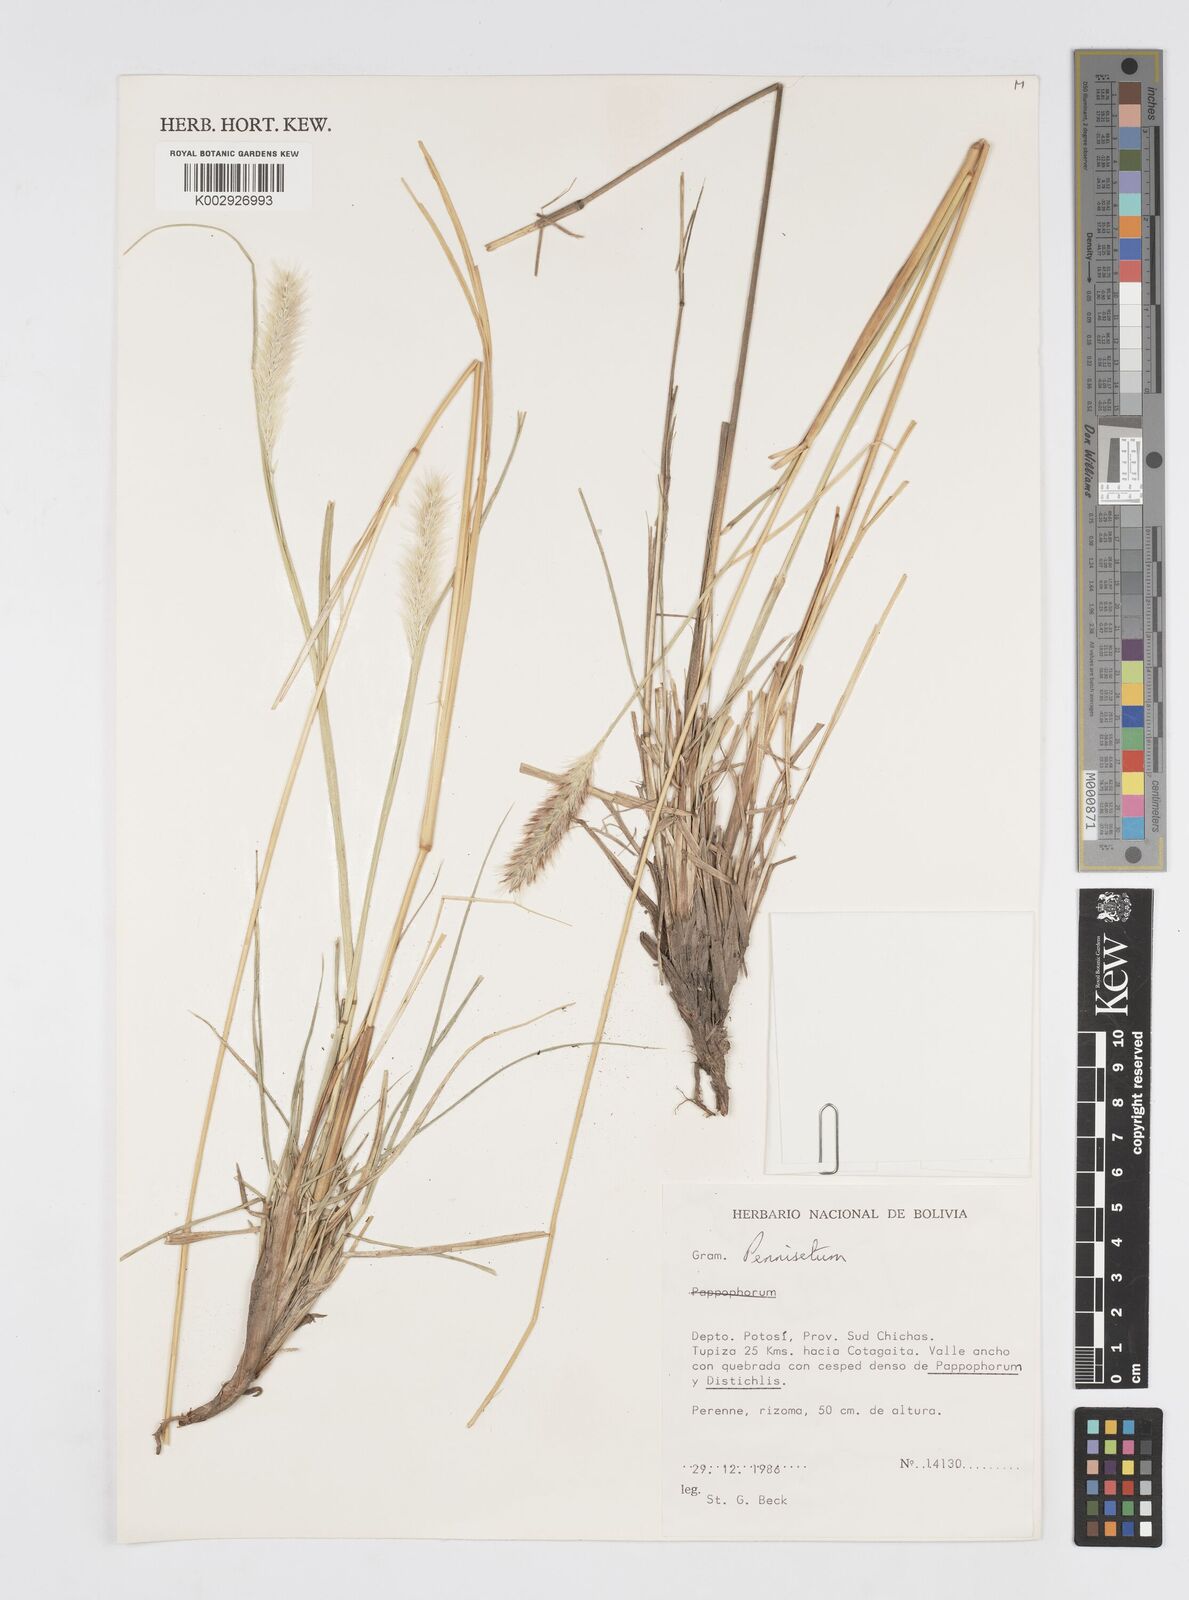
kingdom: Plantae
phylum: Tracheophyta
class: Liliopsida
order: Poales
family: Poaceae
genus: Cenchrus
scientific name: Cenchrus chilensis
